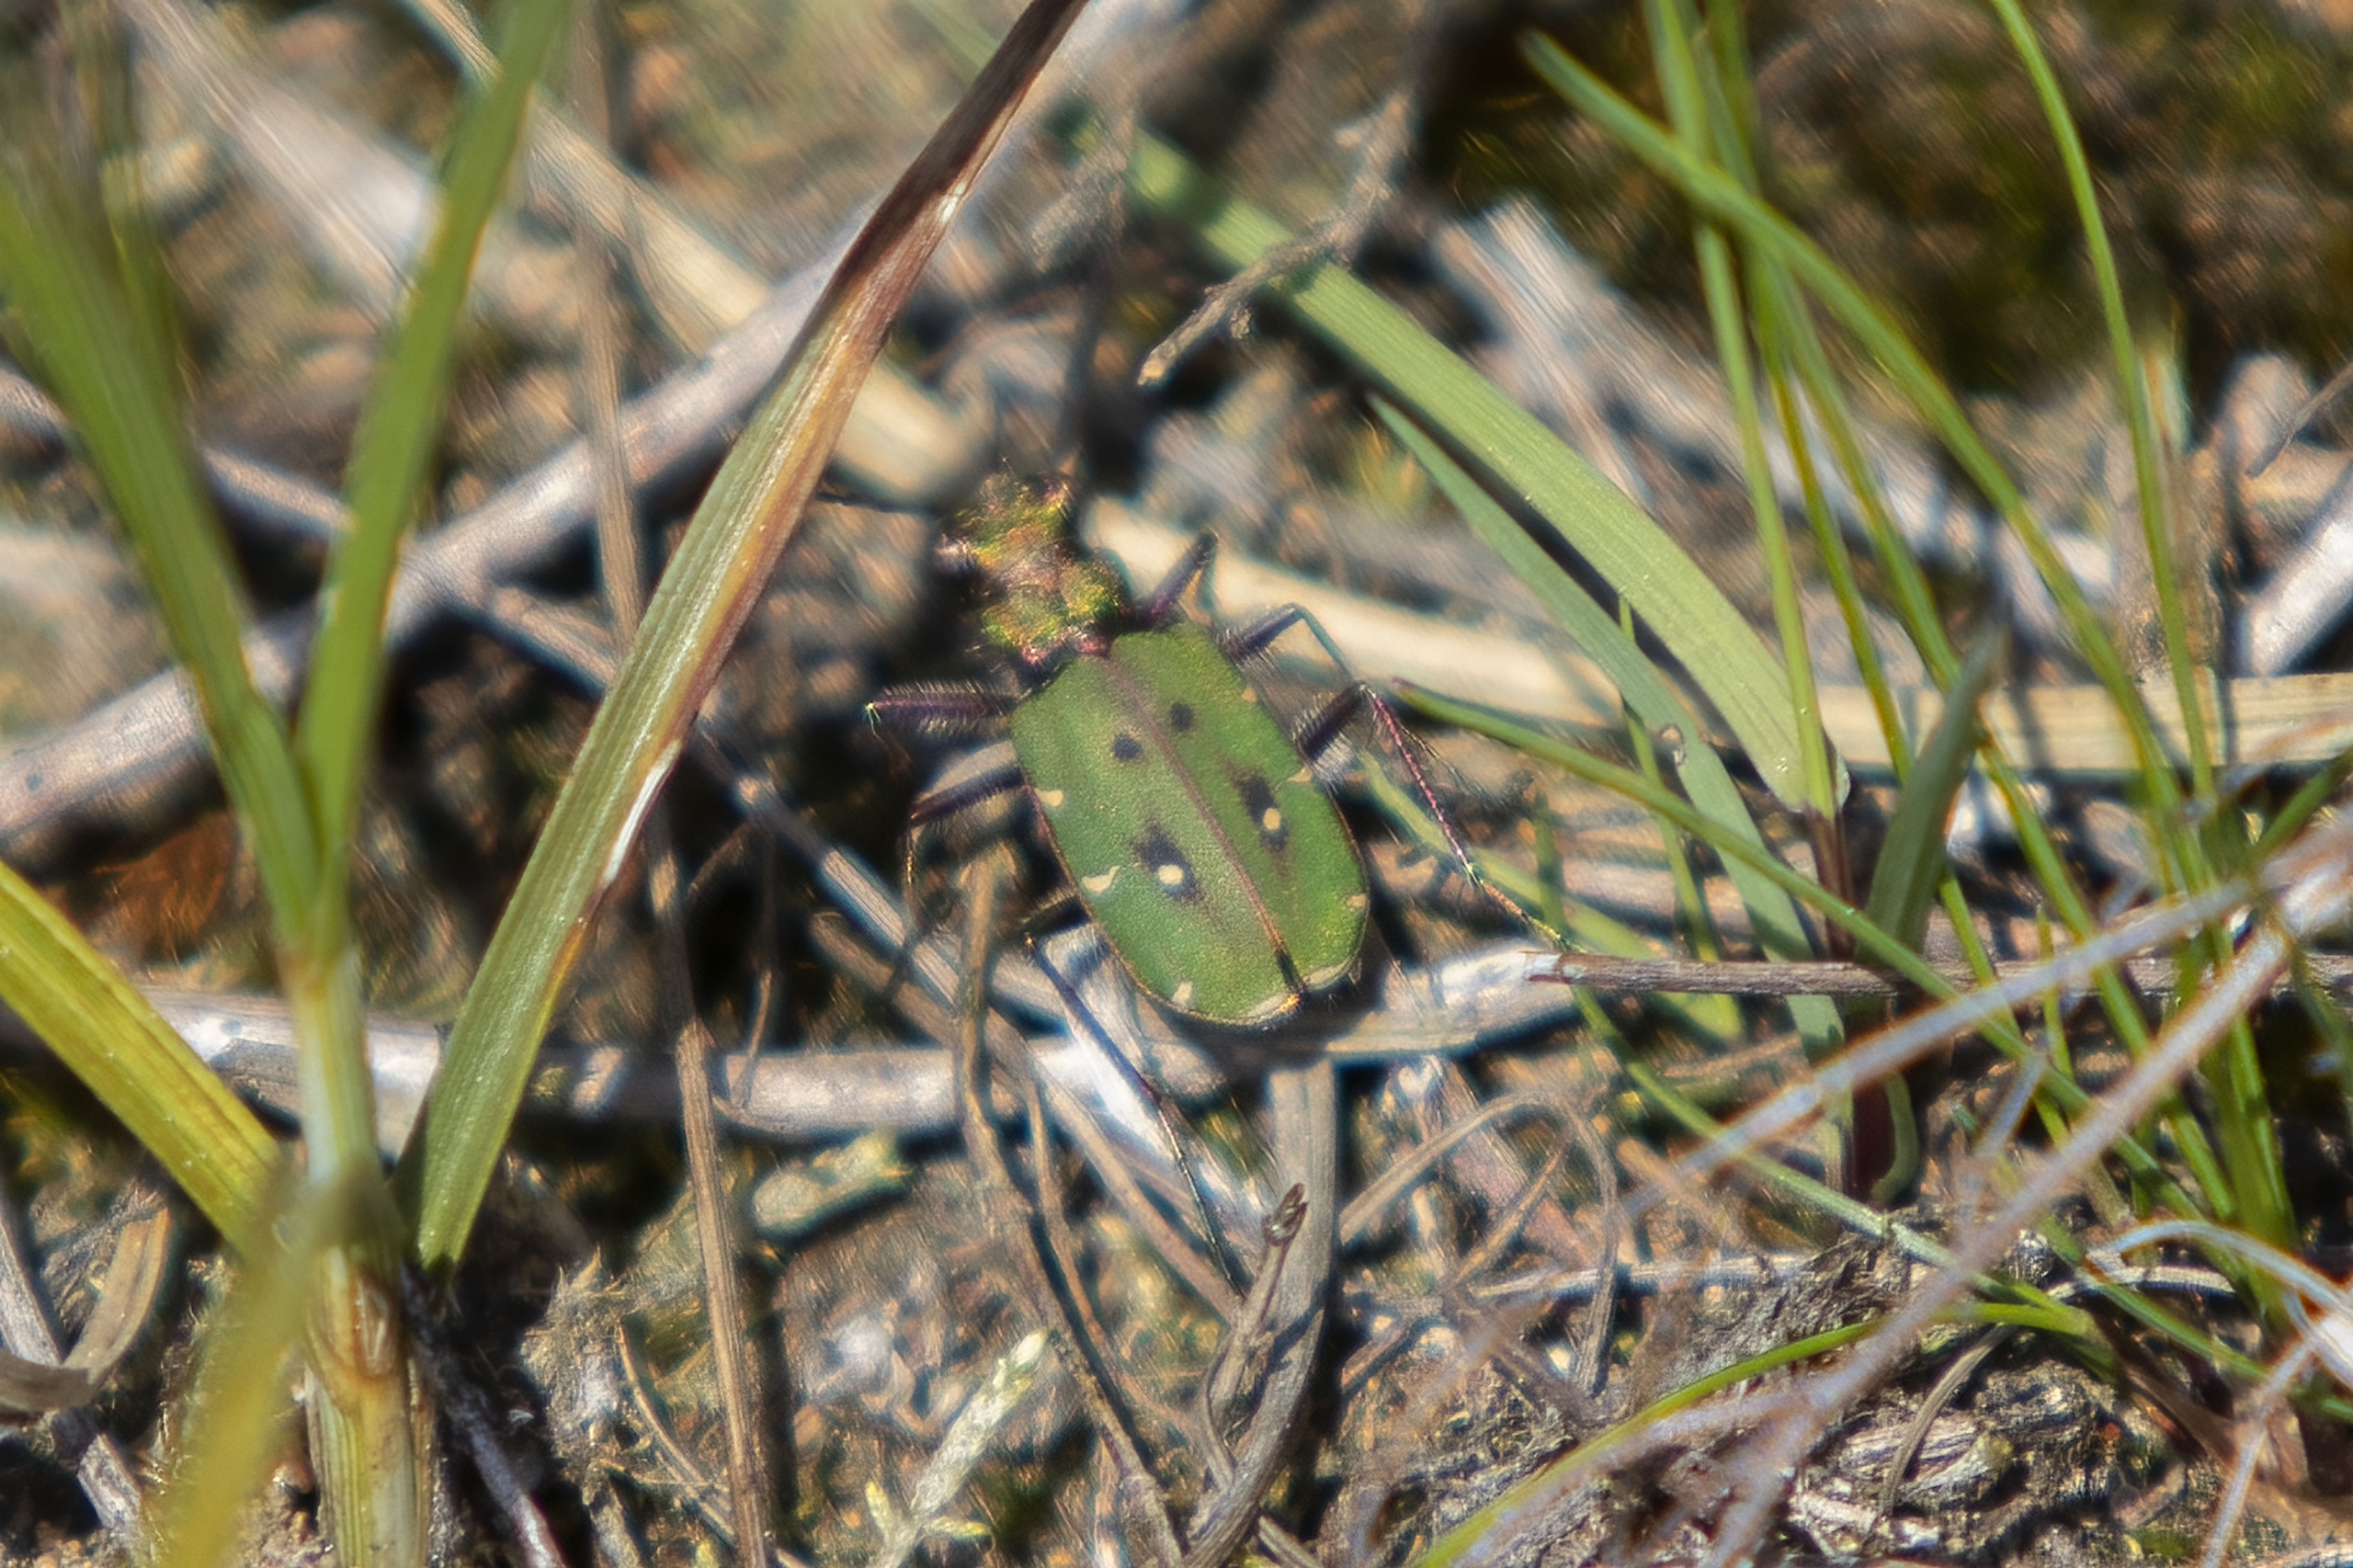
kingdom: Animalia
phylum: Arthropoda
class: Insecta
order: Coleoptera
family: Carabidae
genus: Cicindela
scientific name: Cicindela campestris
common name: Grøn sandspringer
